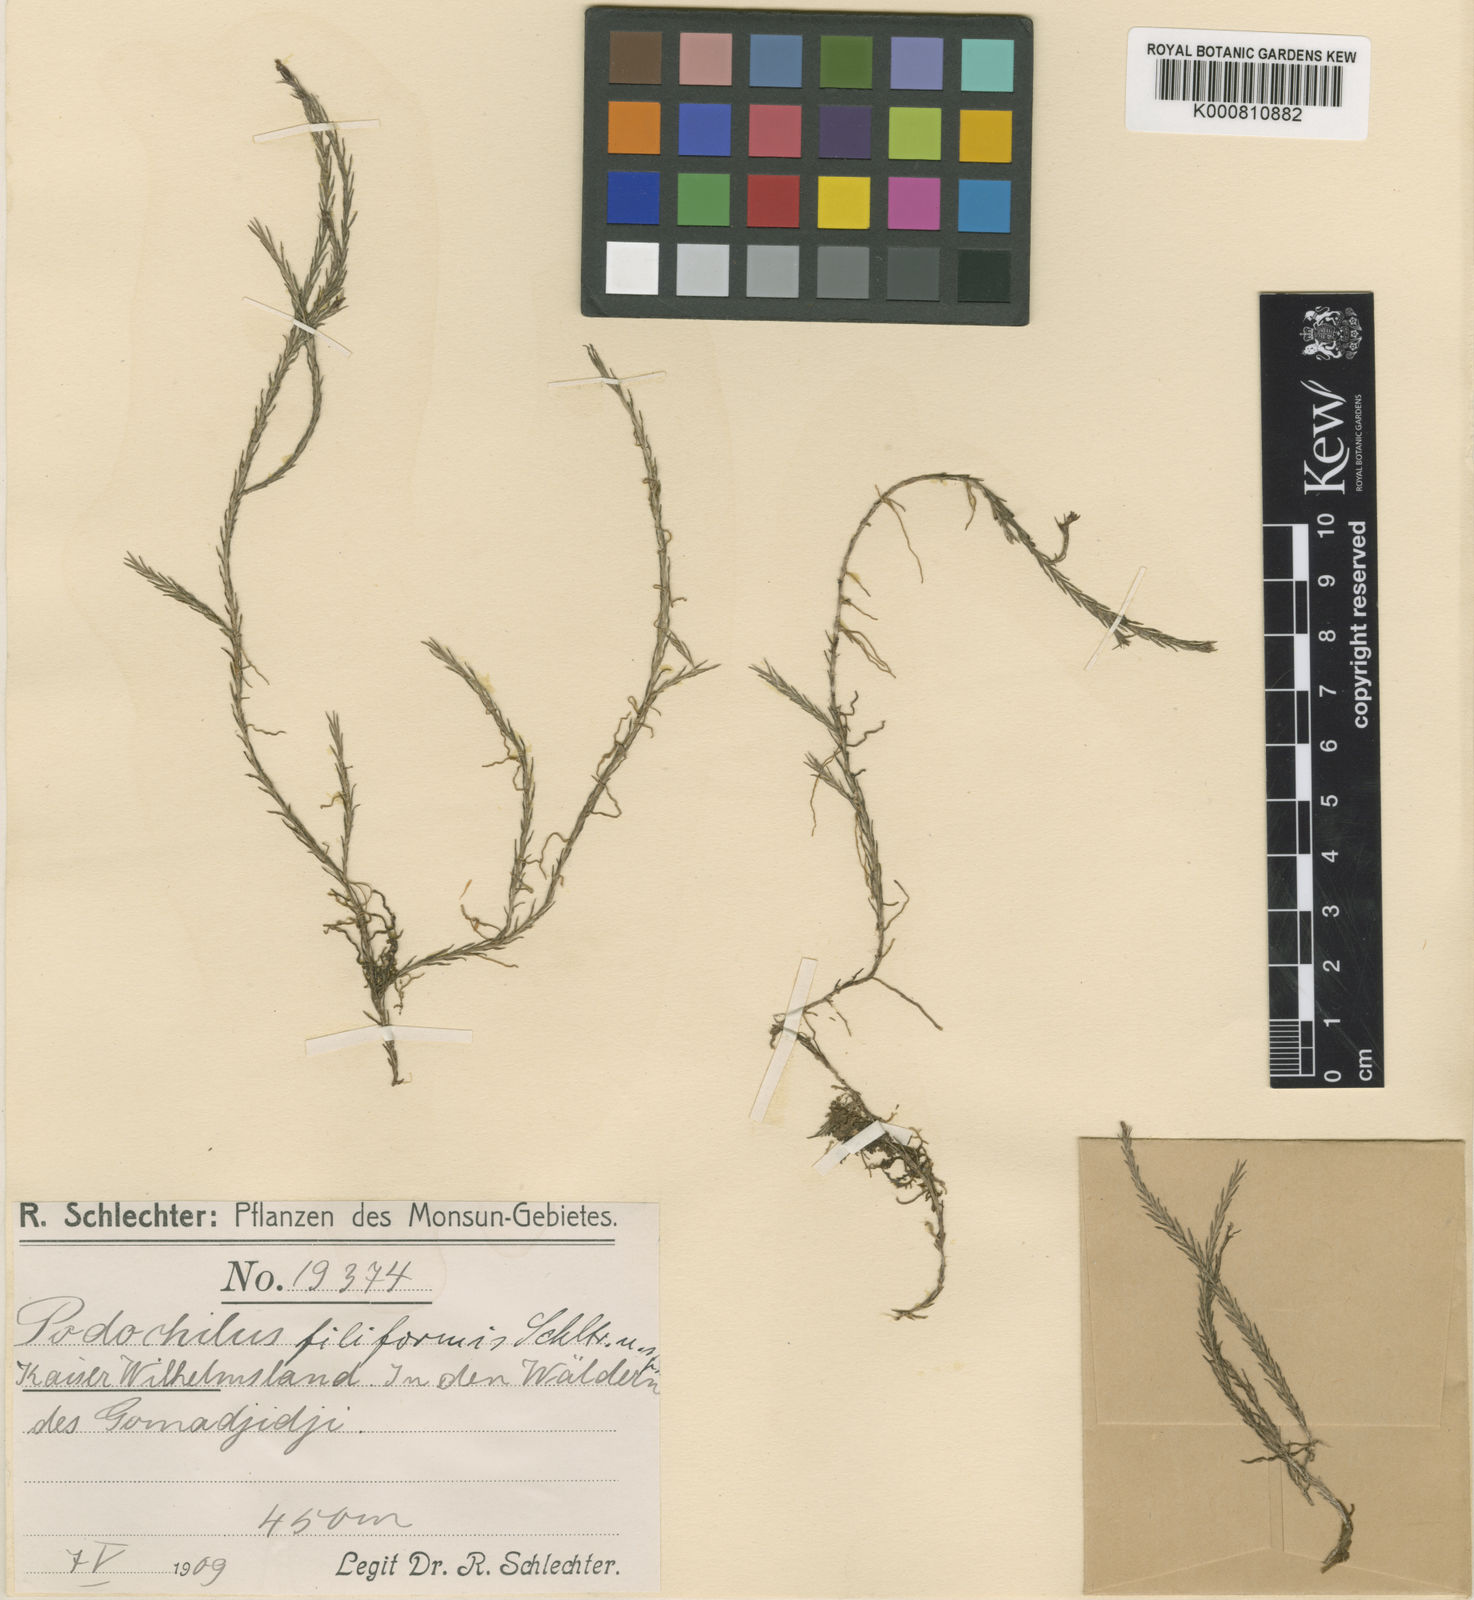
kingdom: Plantae
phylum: Tracheophyta
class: Liliopsida
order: Asparagales
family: Orchidaceae
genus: Podochilus
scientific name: Podochilus filiformis
